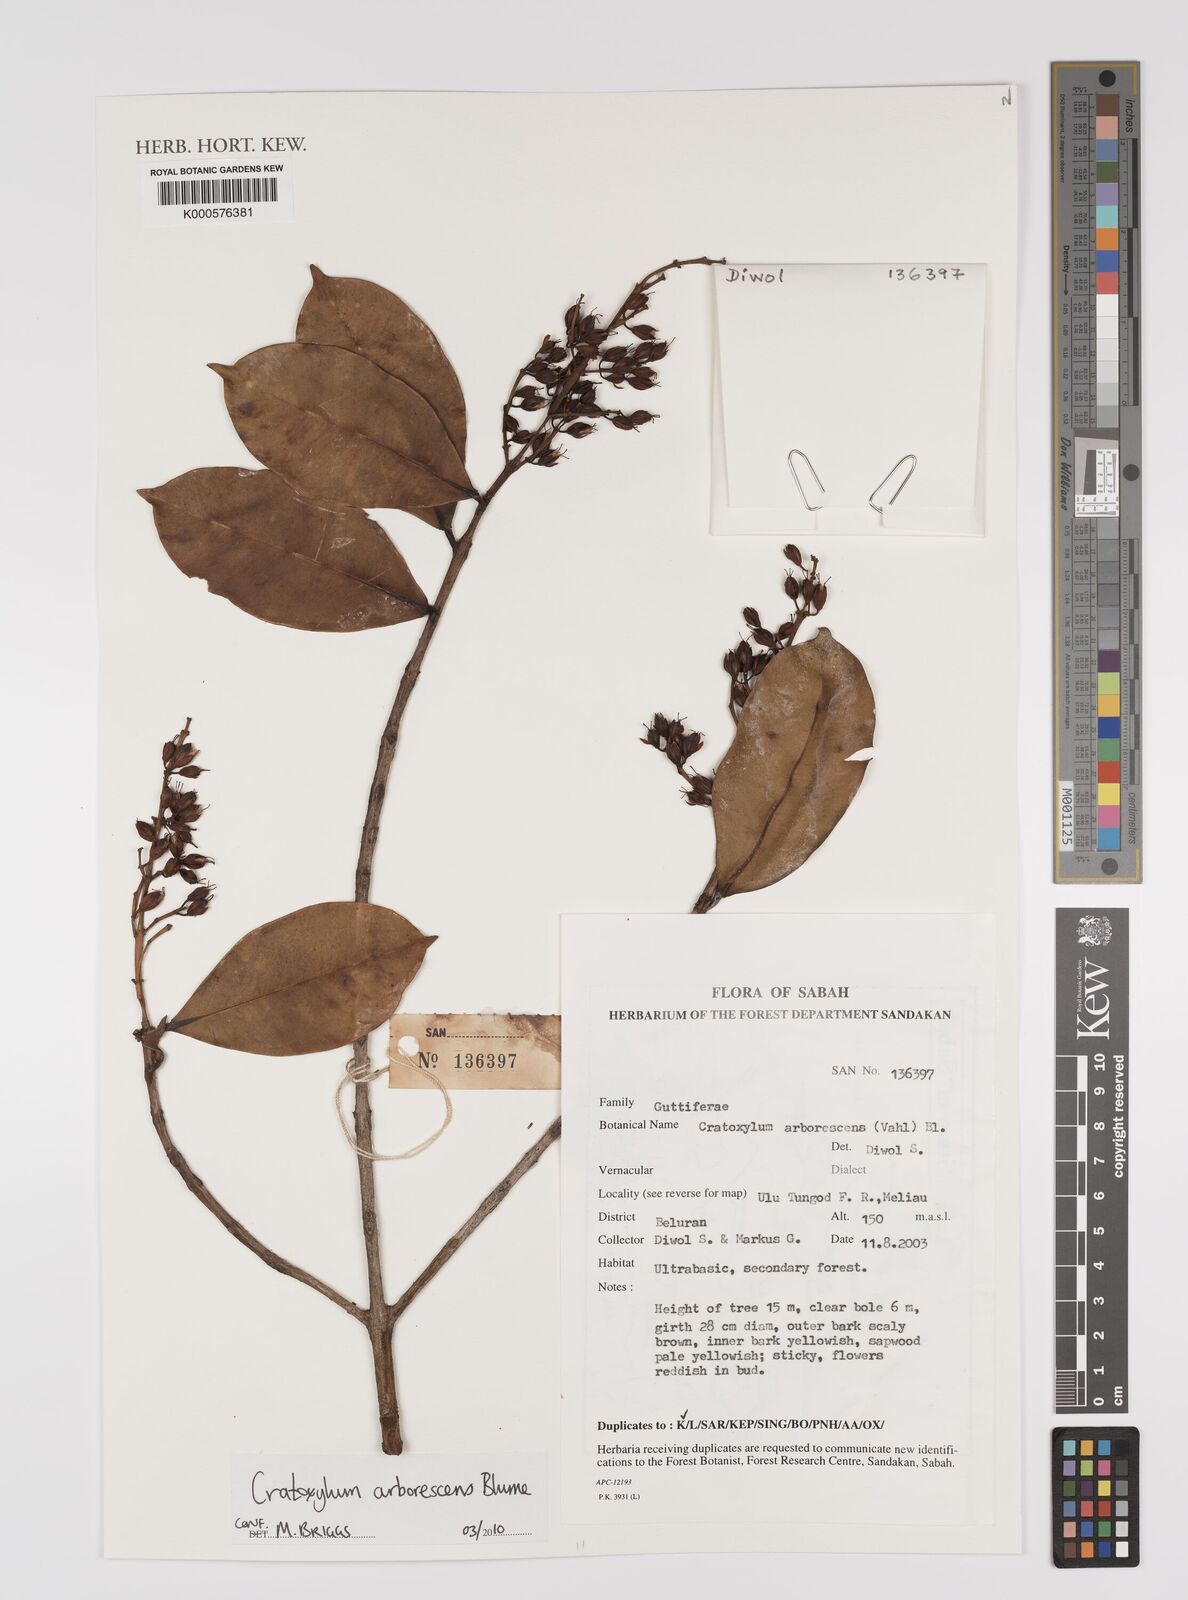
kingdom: Plantae
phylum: Tracheophyta
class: Magnoliopsida
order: Malpighiales
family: Hypericaceae
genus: Cratoxylum
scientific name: Cratoxylum arborescens
